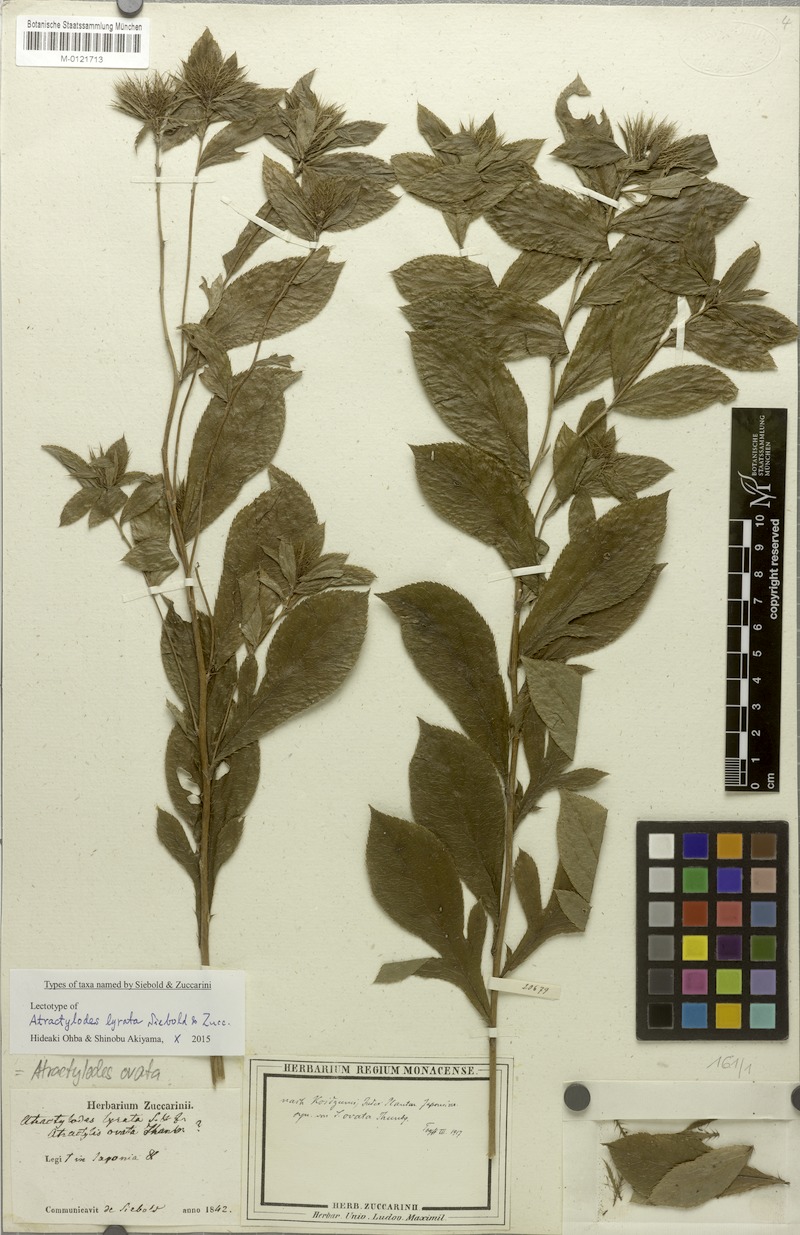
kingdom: Plantae
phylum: Tracheophyta
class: Magnoliopsida
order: Asterales
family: Asteraceae
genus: Atractylodes
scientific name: Atractylodes lancea
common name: Southern tsangshu
